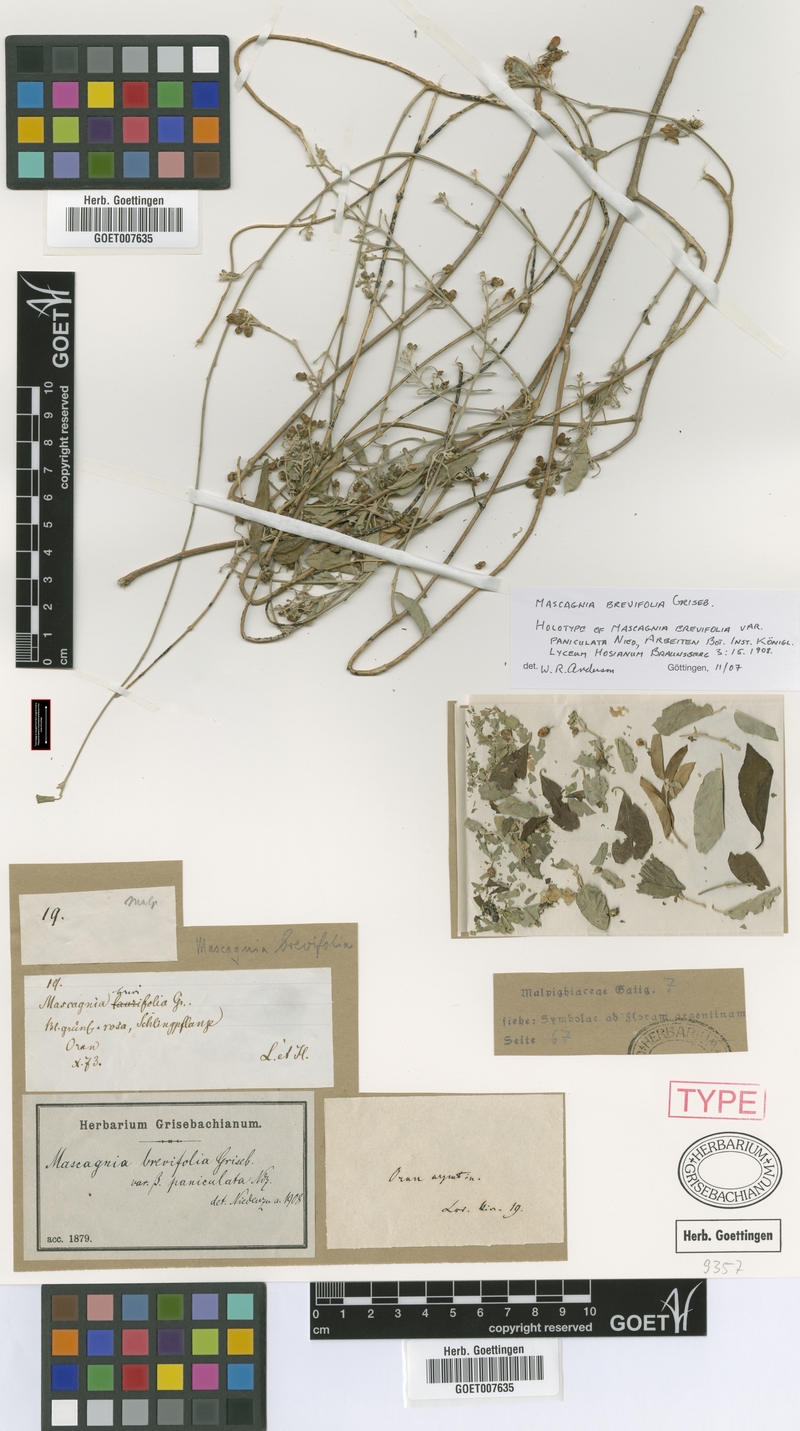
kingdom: Plantae
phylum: Tracheophyta
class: Magnoliopsida
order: Malpighiales
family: Malpighiaceae
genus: Mascagnia
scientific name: Mascagnia brevifolia
